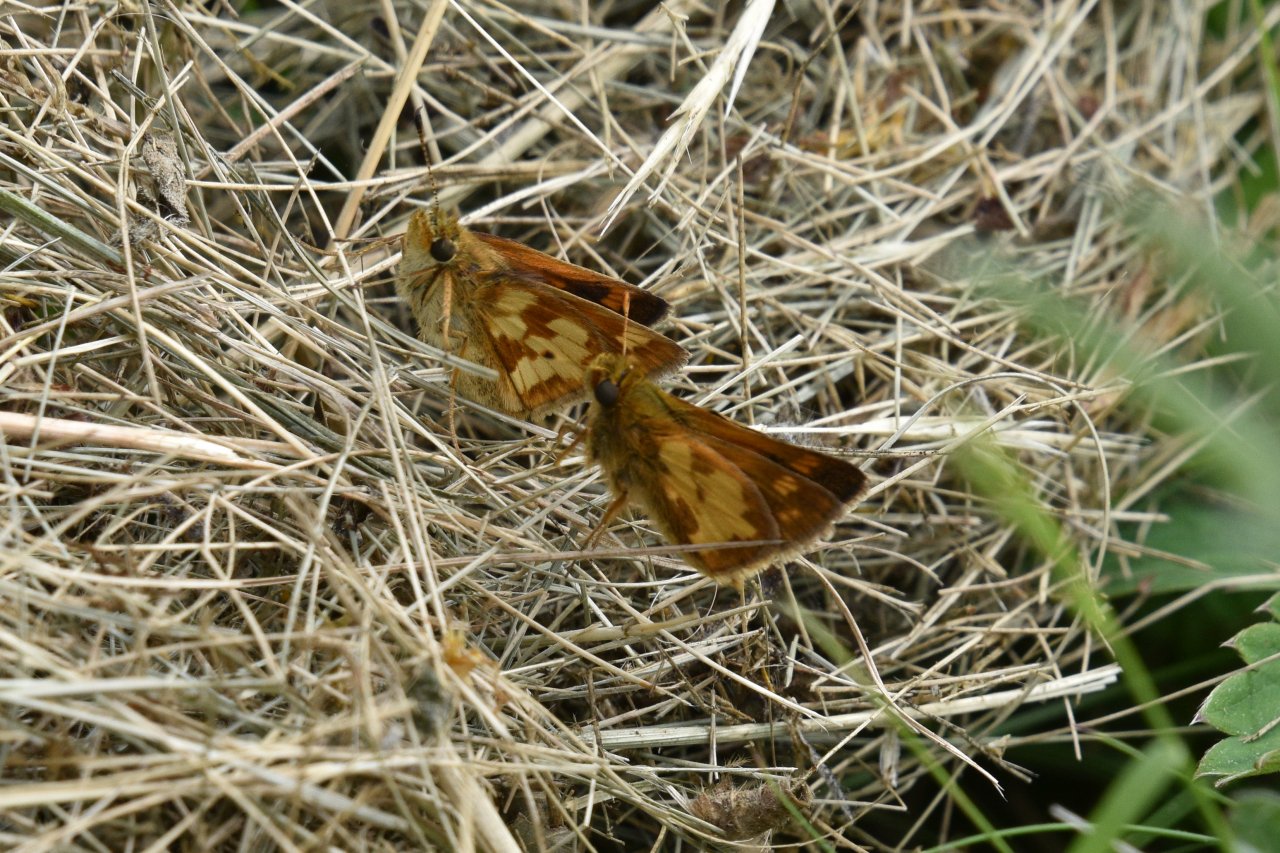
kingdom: Animalia
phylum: Arthropoda
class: Insecta
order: Lepidoptera
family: Hesperiidae
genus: Polites
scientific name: Polites coras
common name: Peck's Skipper
